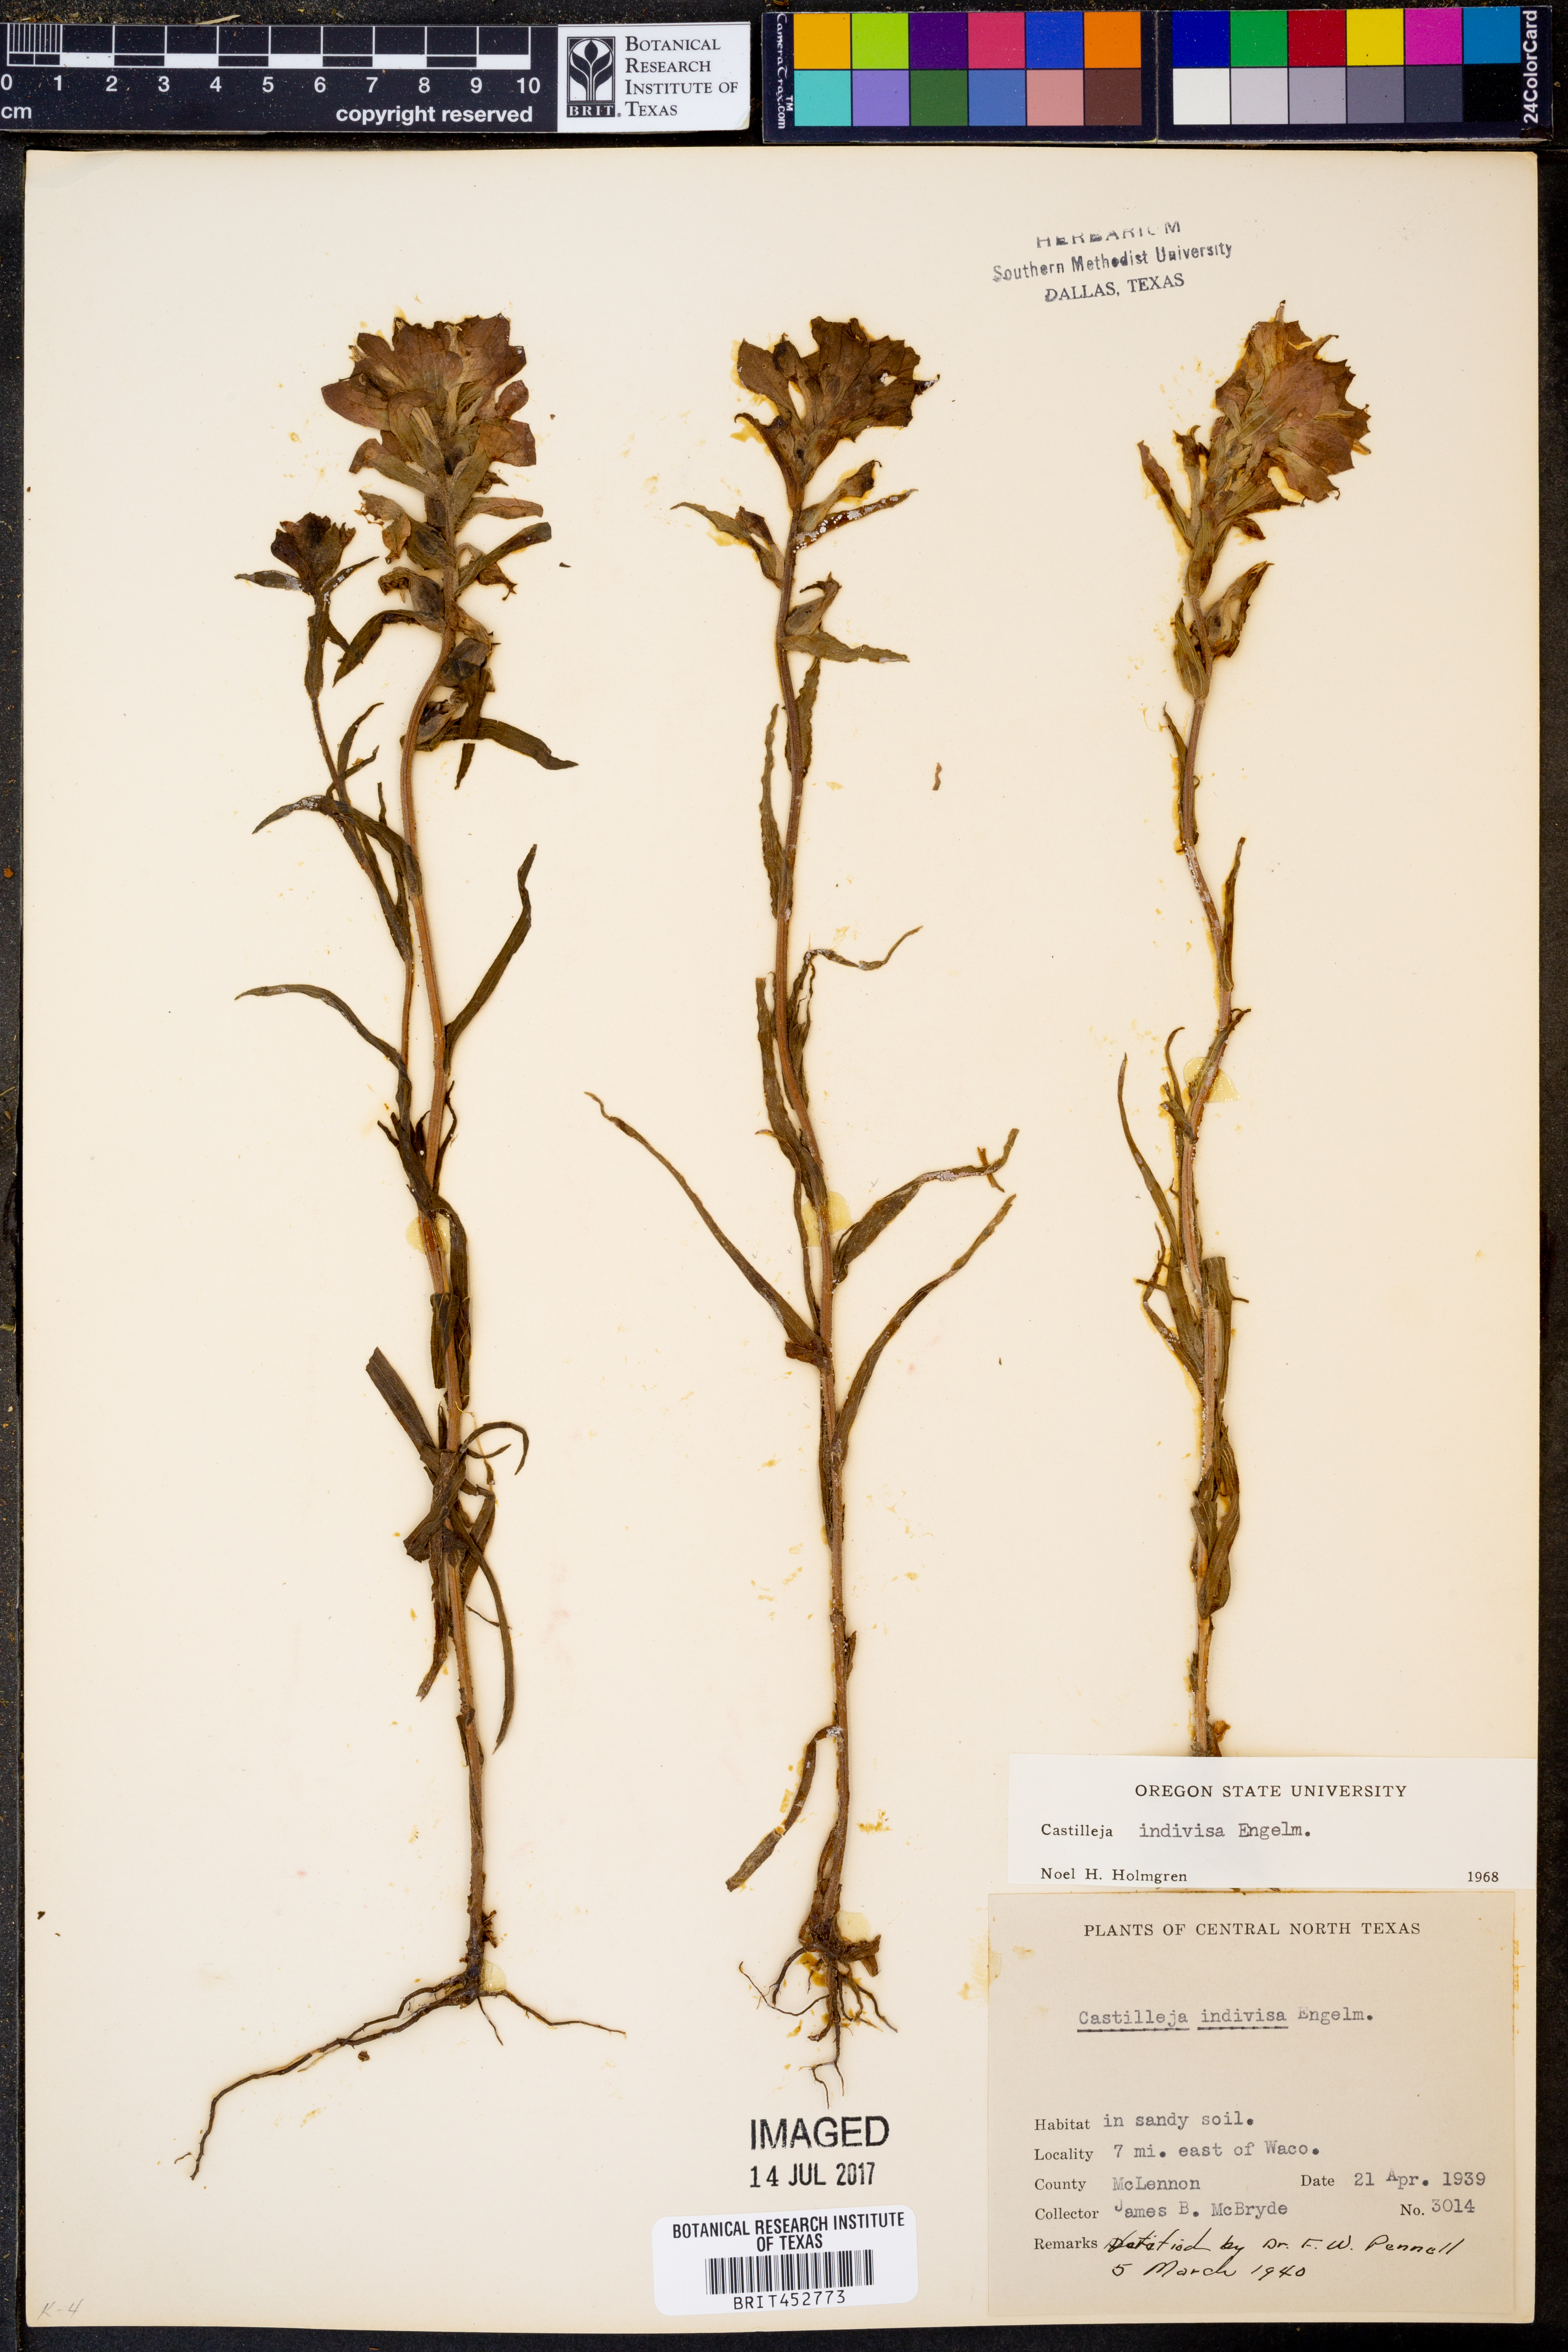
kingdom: Plantae
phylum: Tracheophyta
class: Magnoliopsida
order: Lamiales
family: Orobanchaceae
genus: Castilleja
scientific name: Castilleja indivisa
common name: Texas paintbrush
